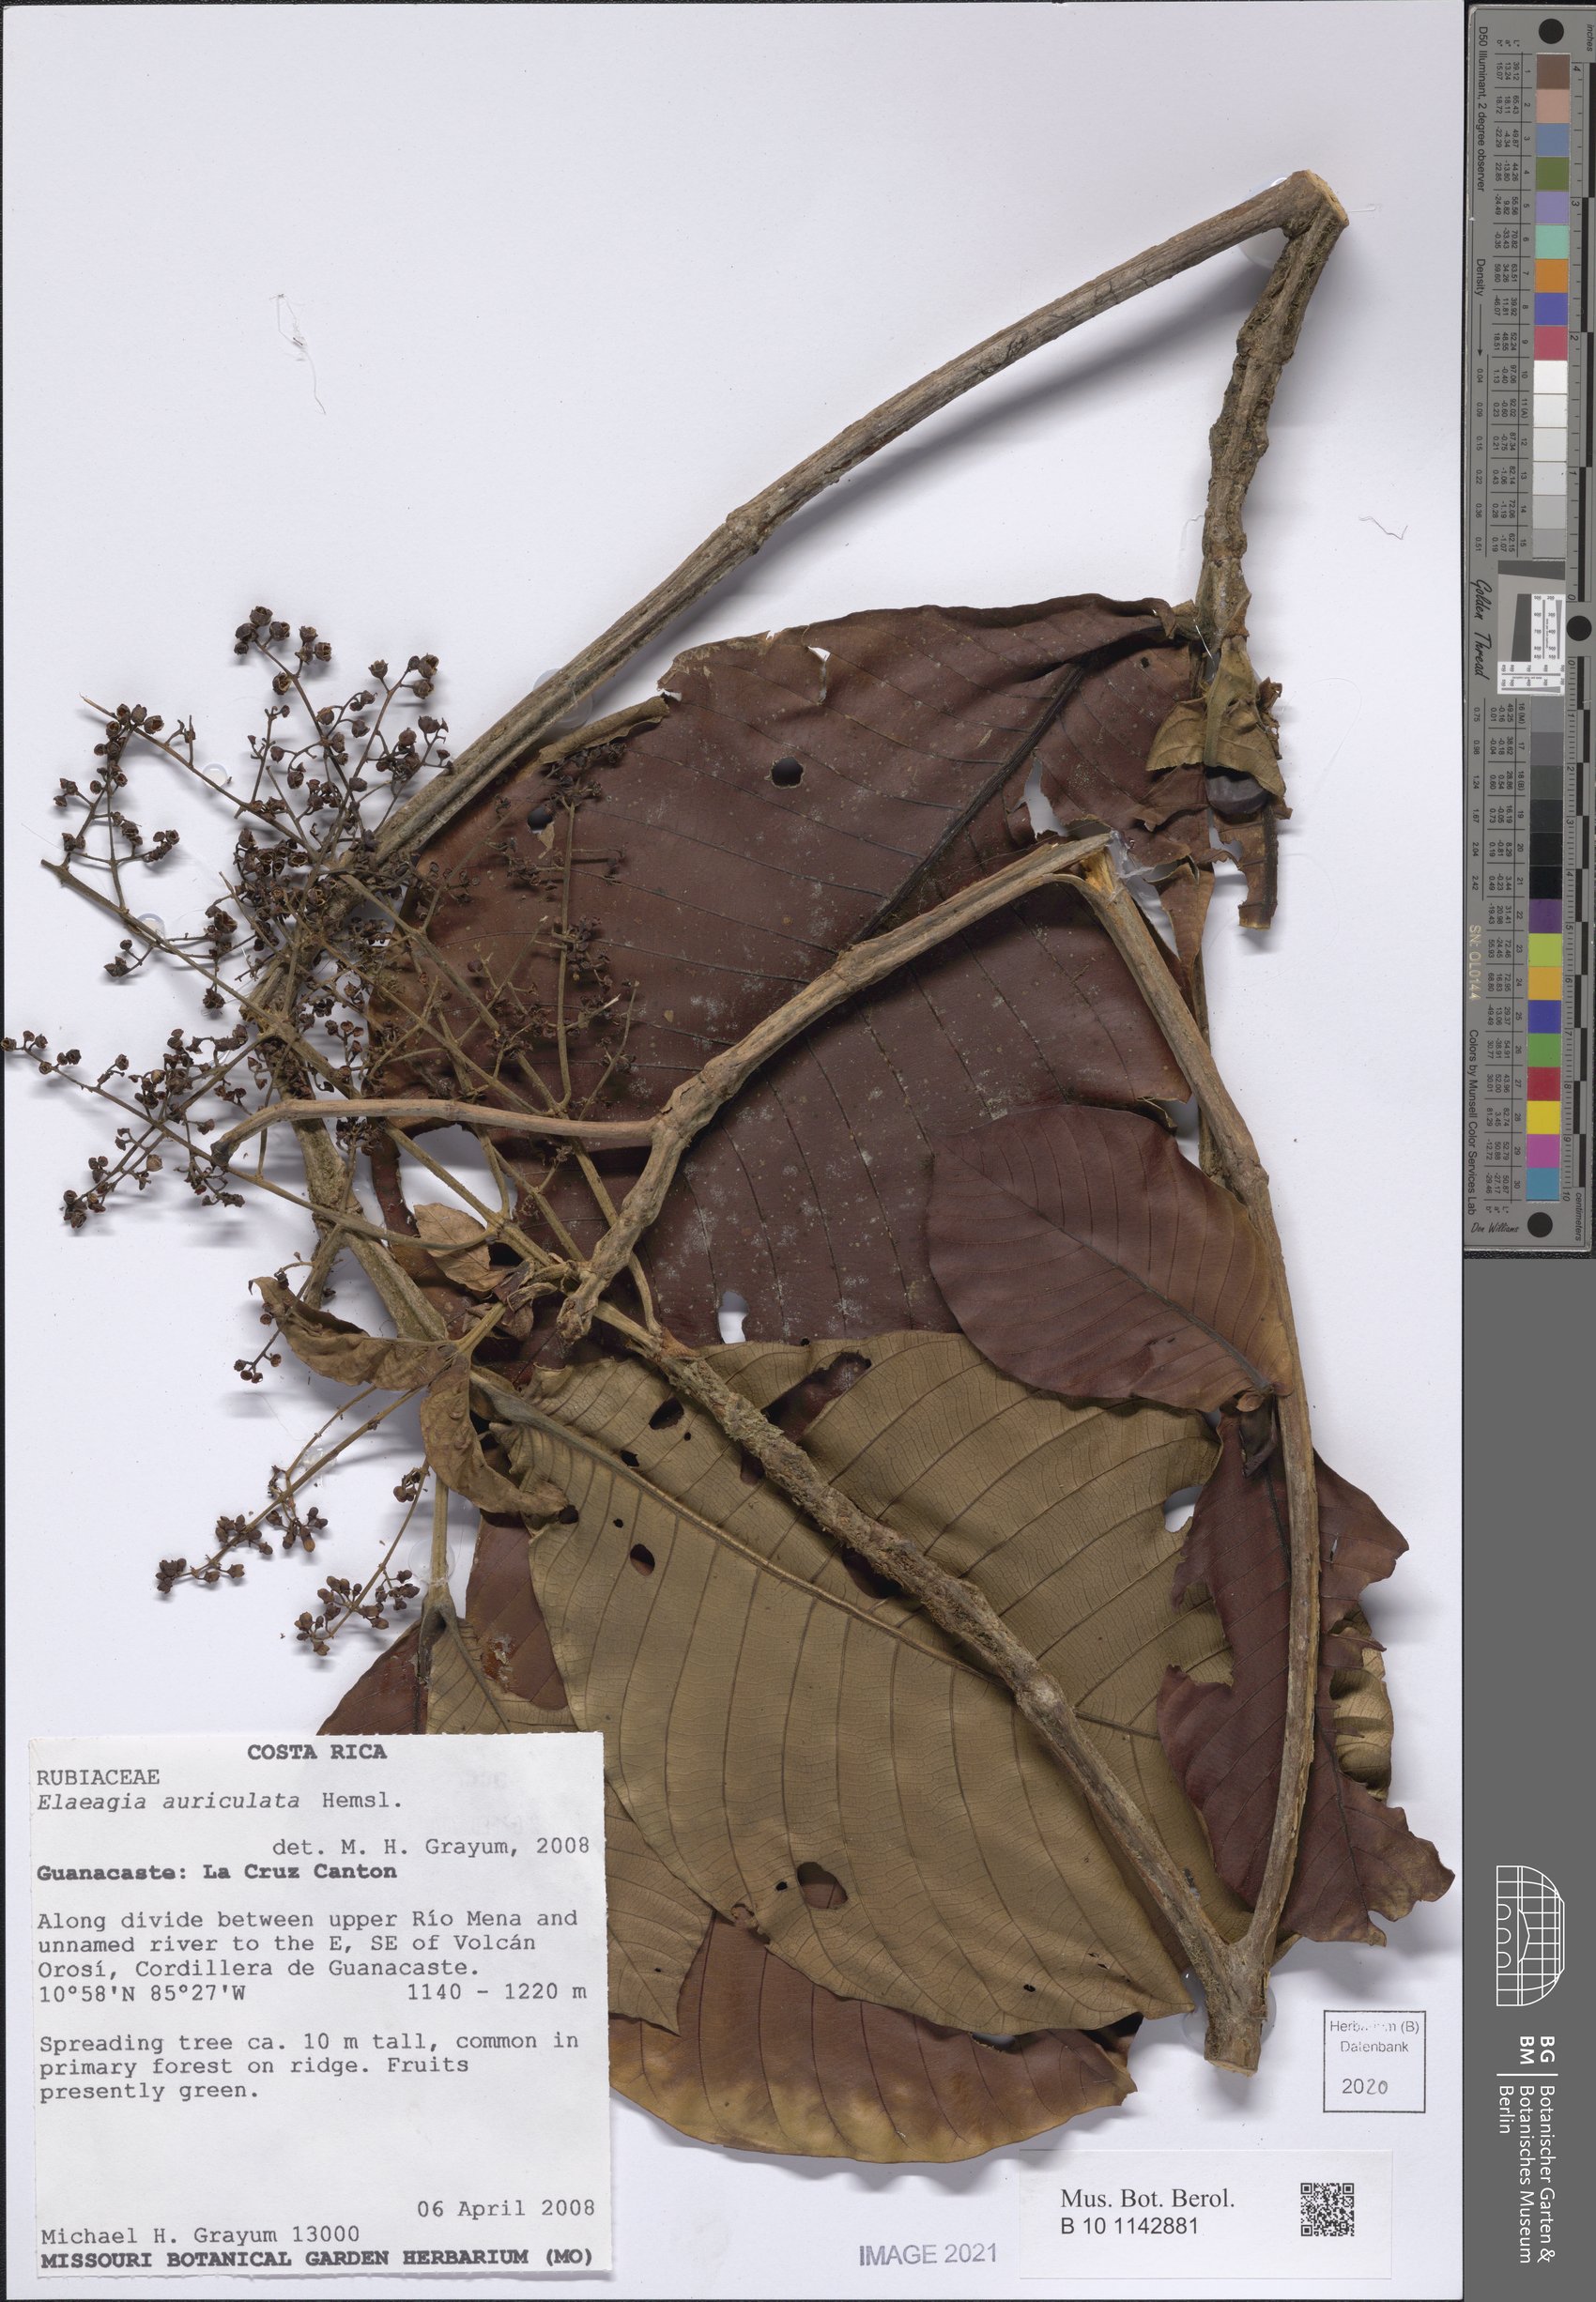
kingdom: Plantae
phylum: Tracheophyta
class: Magnoliopsida
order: Gentianales
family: Rubiaceae
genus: Elaeagia
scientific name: Elaeagia auriculata
